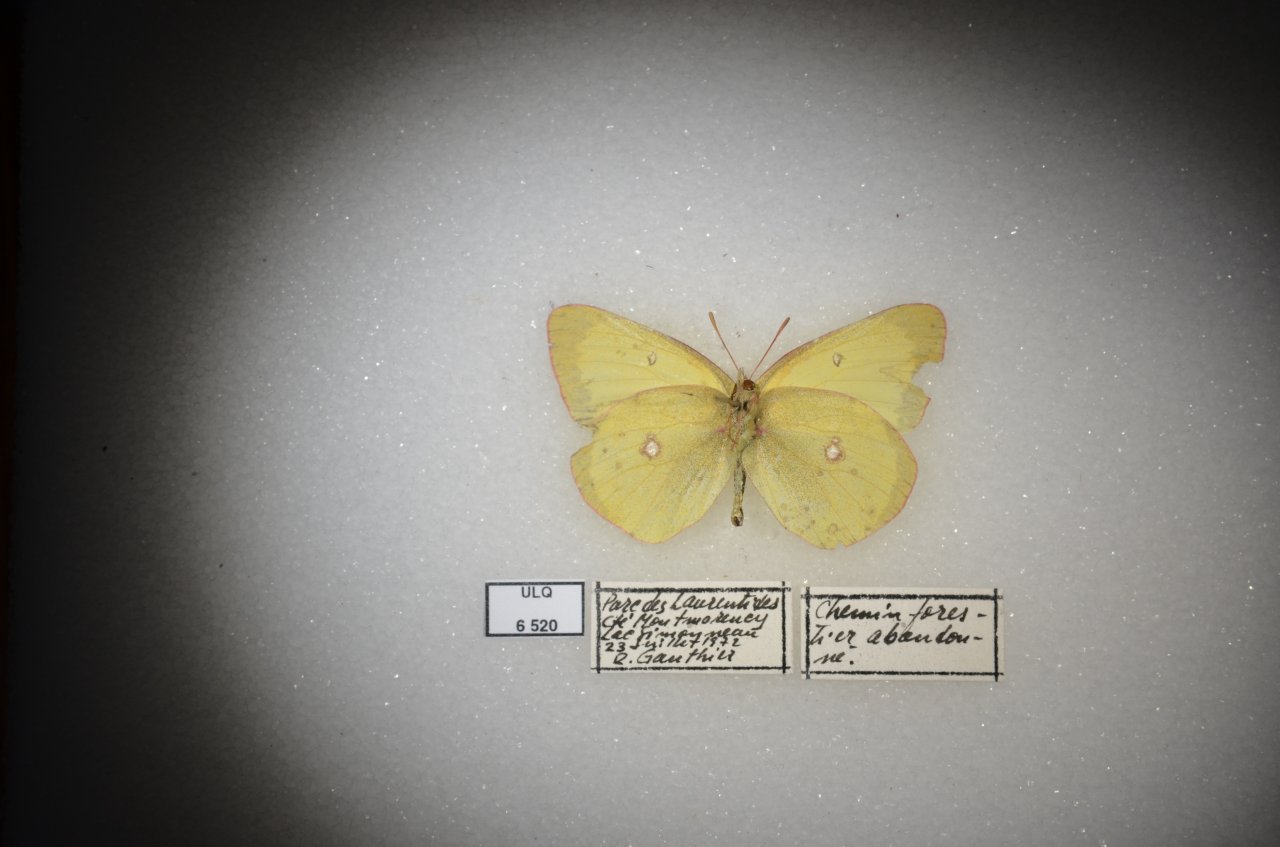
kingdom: Animalia
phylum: Arthropoda
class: Insecta
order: Lepidoptera
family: Pieridae
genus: Colias
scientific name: Colias interior
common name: Pink-edged Sulphur
